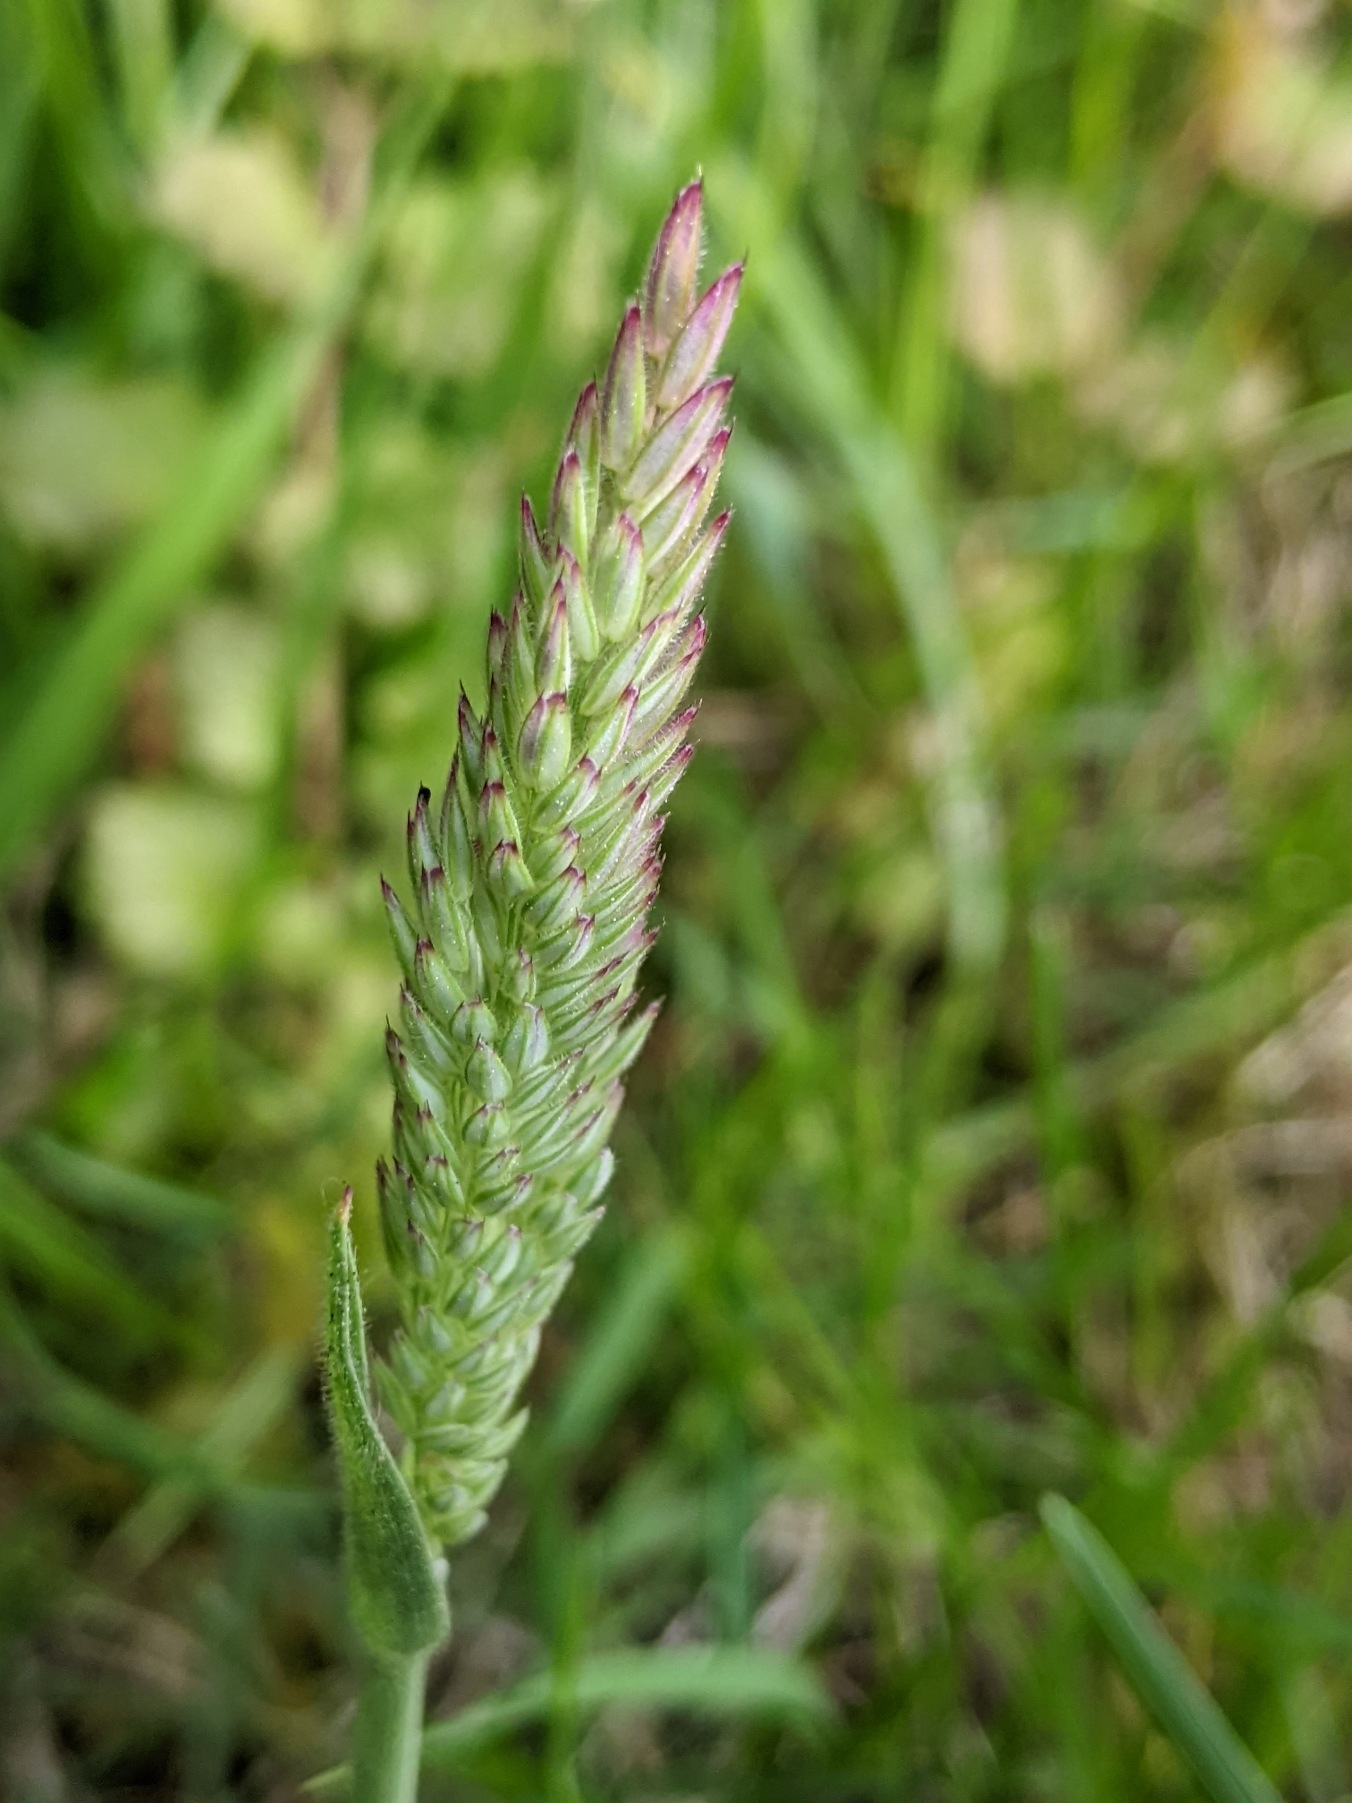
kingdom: Plantae
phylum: Tracheophyta
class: Liliopsida
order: Poales
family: Poaceae
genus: Holcus
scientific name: Holcus lanatus
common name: Fløjlsgræs
